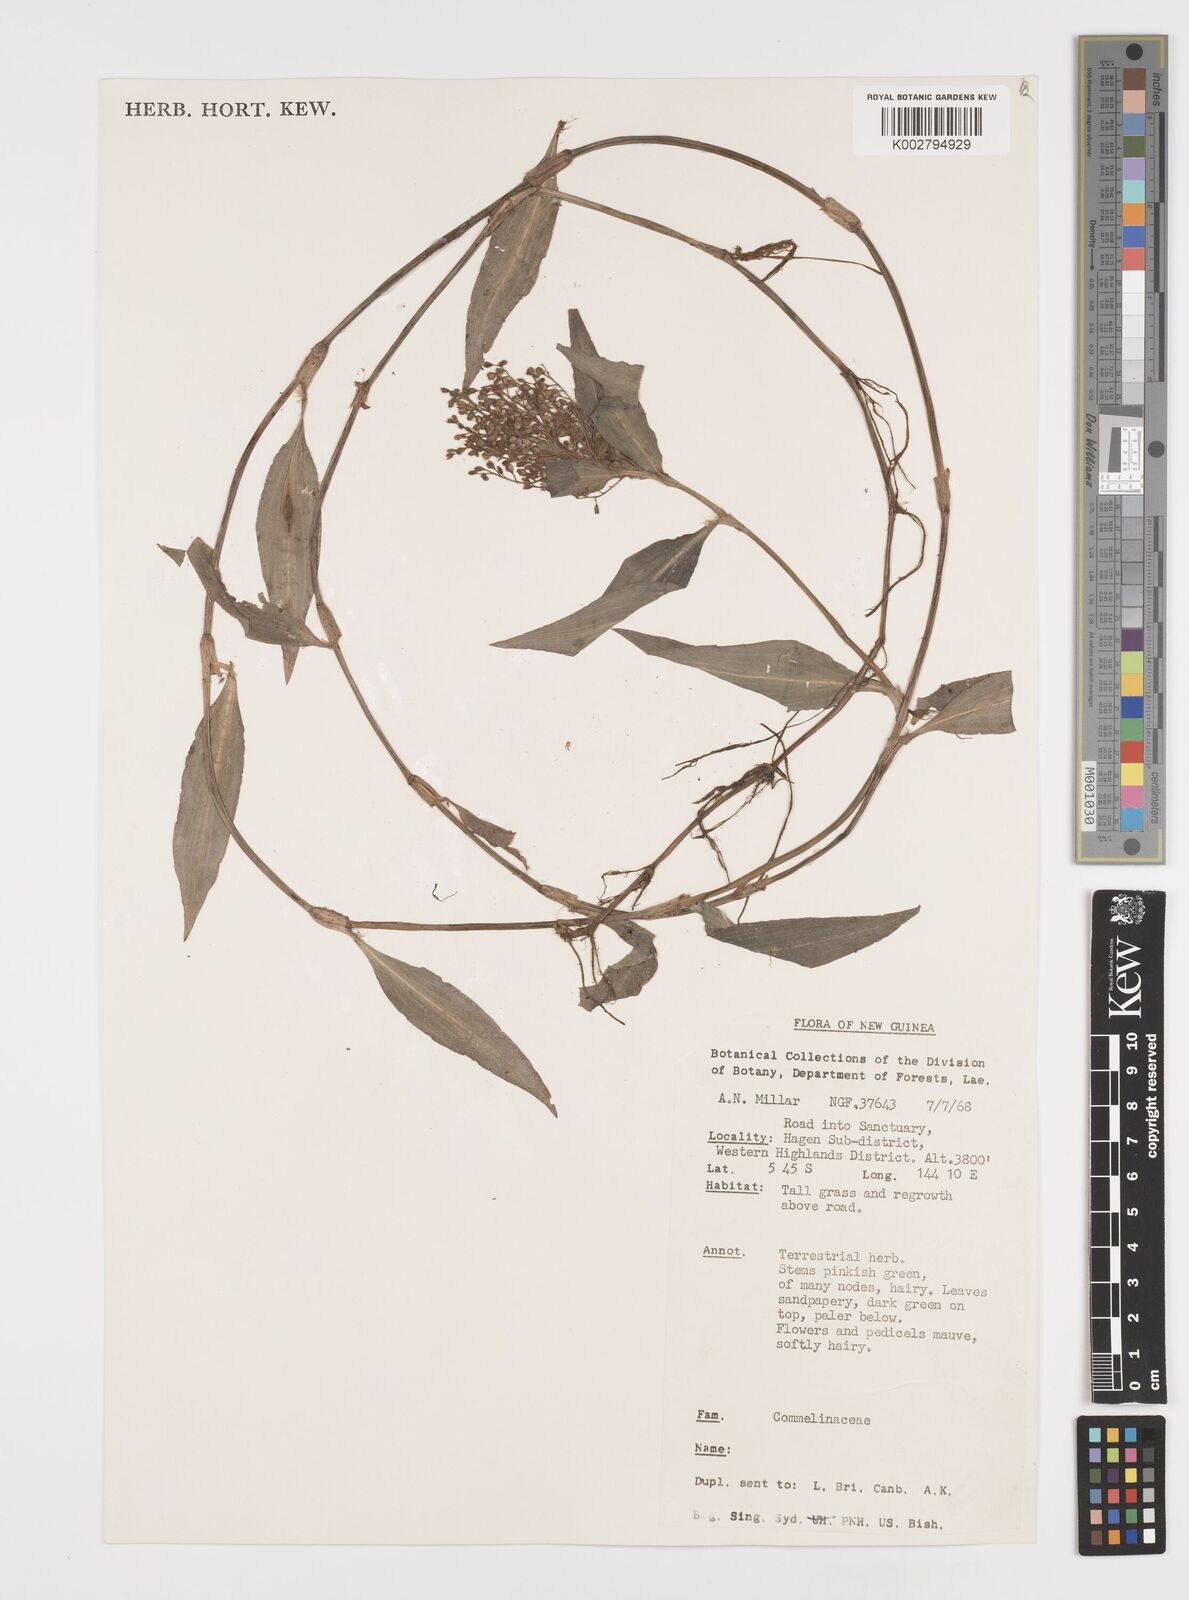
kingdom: Plantae
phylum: Tracheophyta
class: Liliopsida
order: Commelinales
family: Commelinaceae
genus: Floscopa
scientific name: Floscopa scandens
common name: Climbing flower cup
